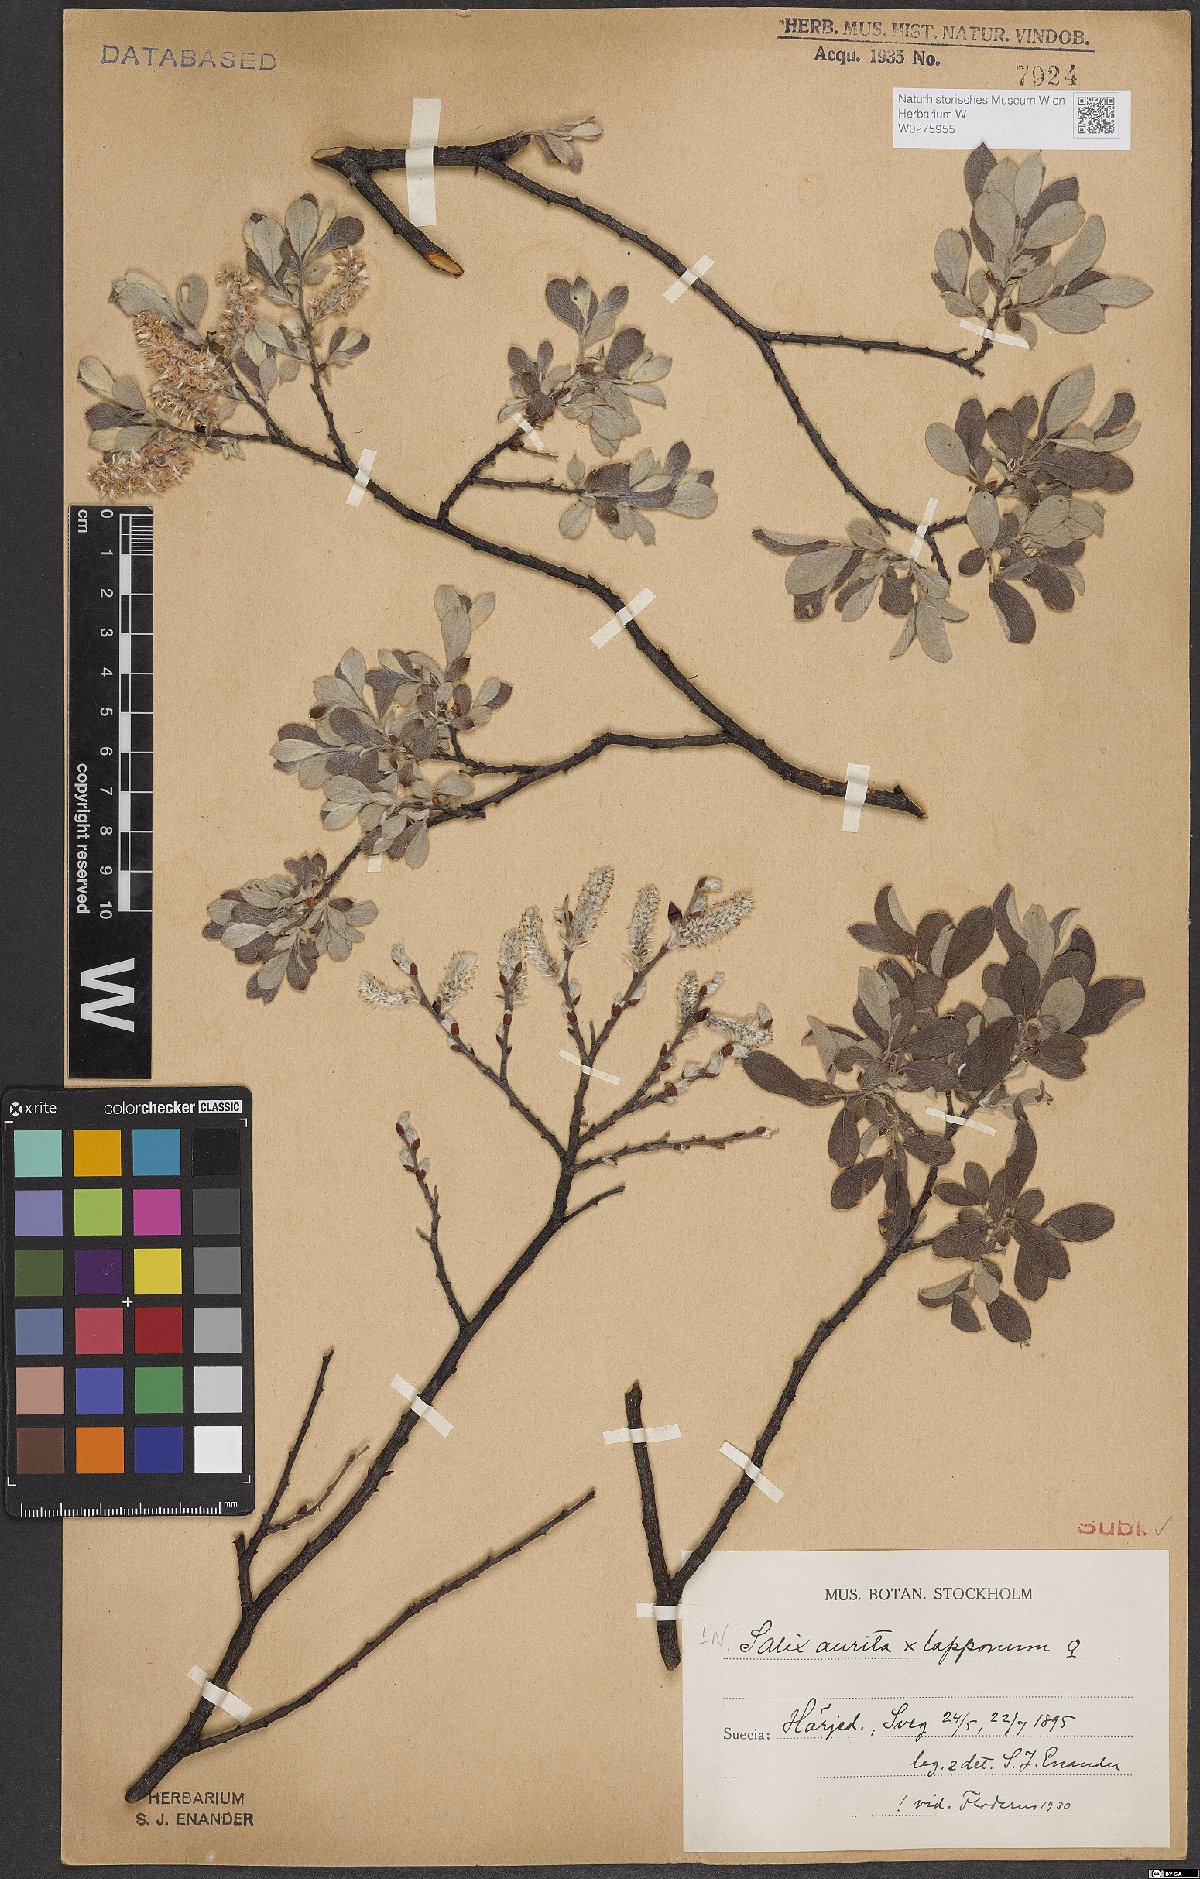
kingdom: Plantae
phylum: Tracheophyta
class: Magnoliopsida
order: Malpighiales
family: Salicaceae
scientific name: Salicaceae
